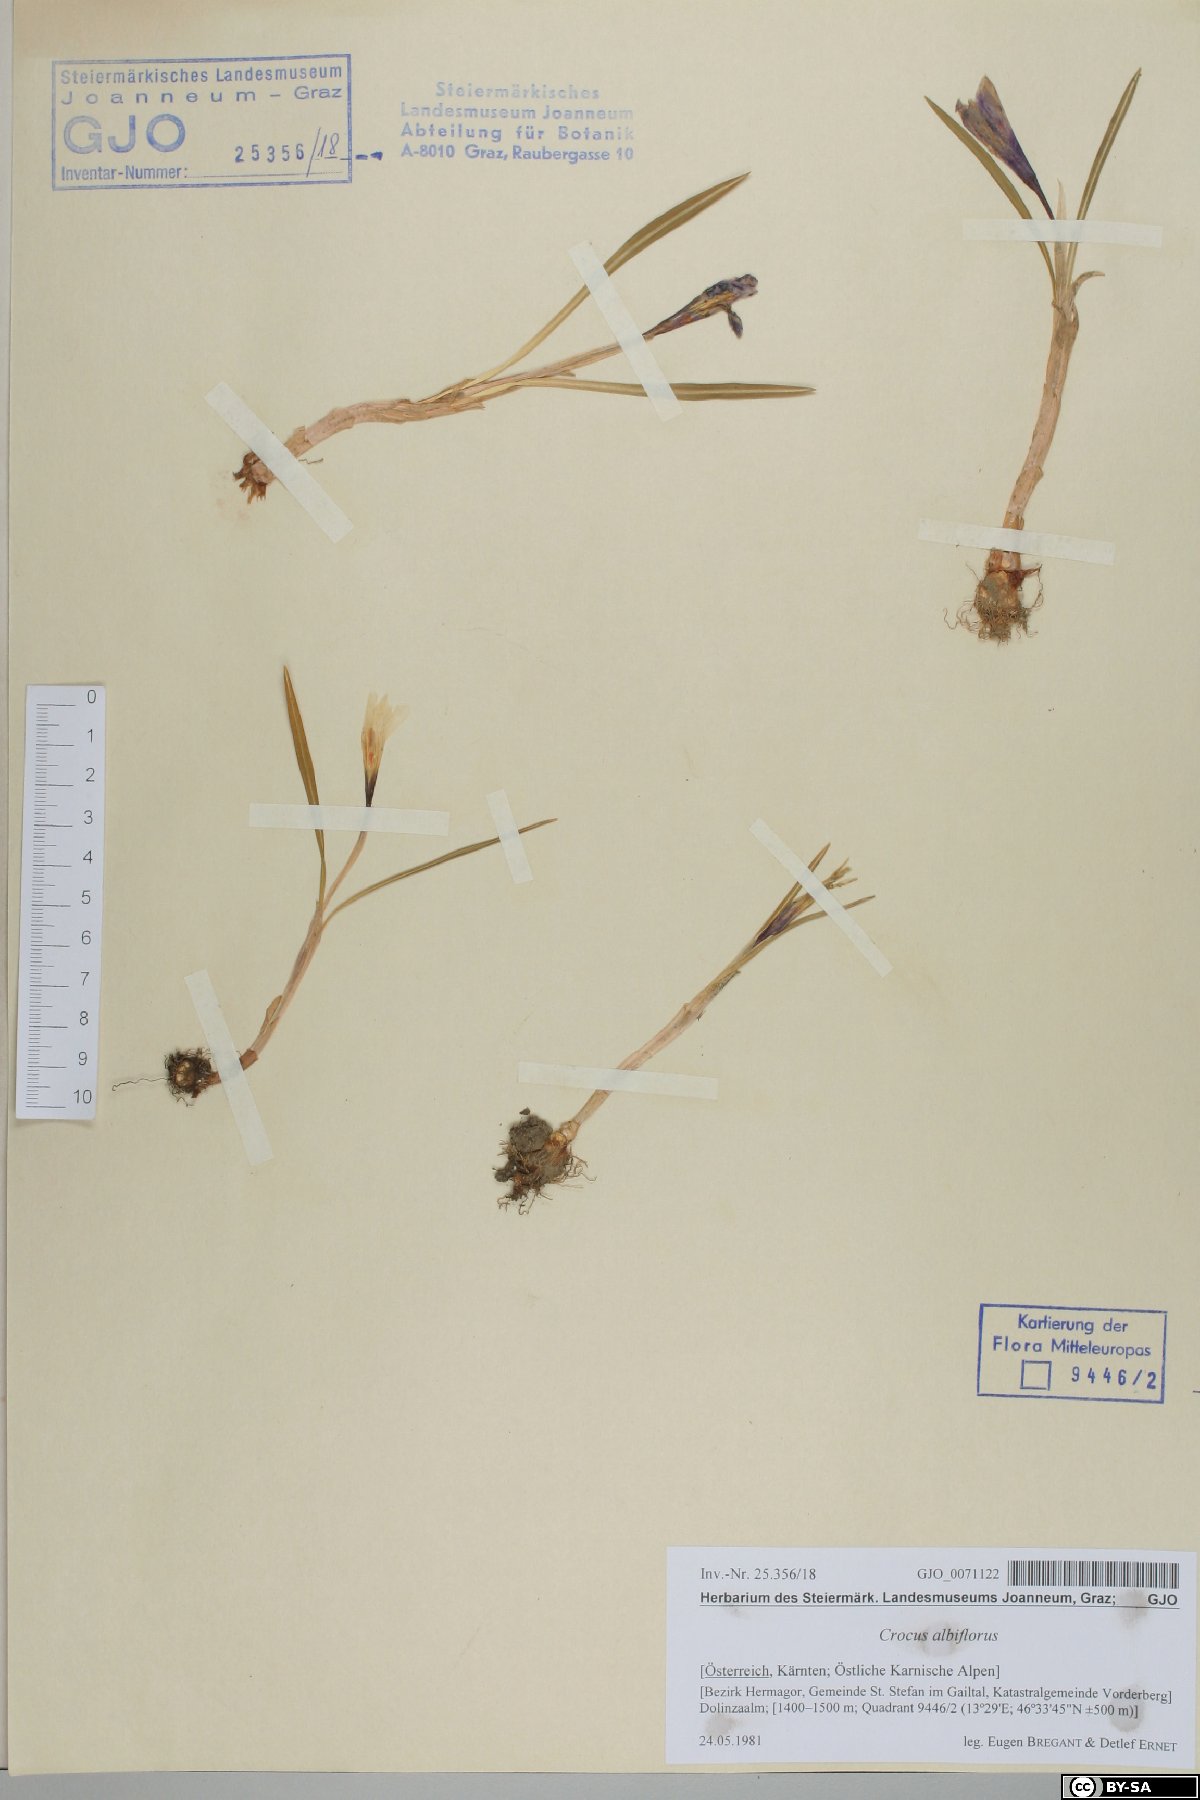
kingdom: Plantae
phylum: Tracheophyta
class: Liliopsida
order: Asparagales
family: Iridaceae
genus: Crocus
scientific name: Crocus vernus
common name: Spring crocus
